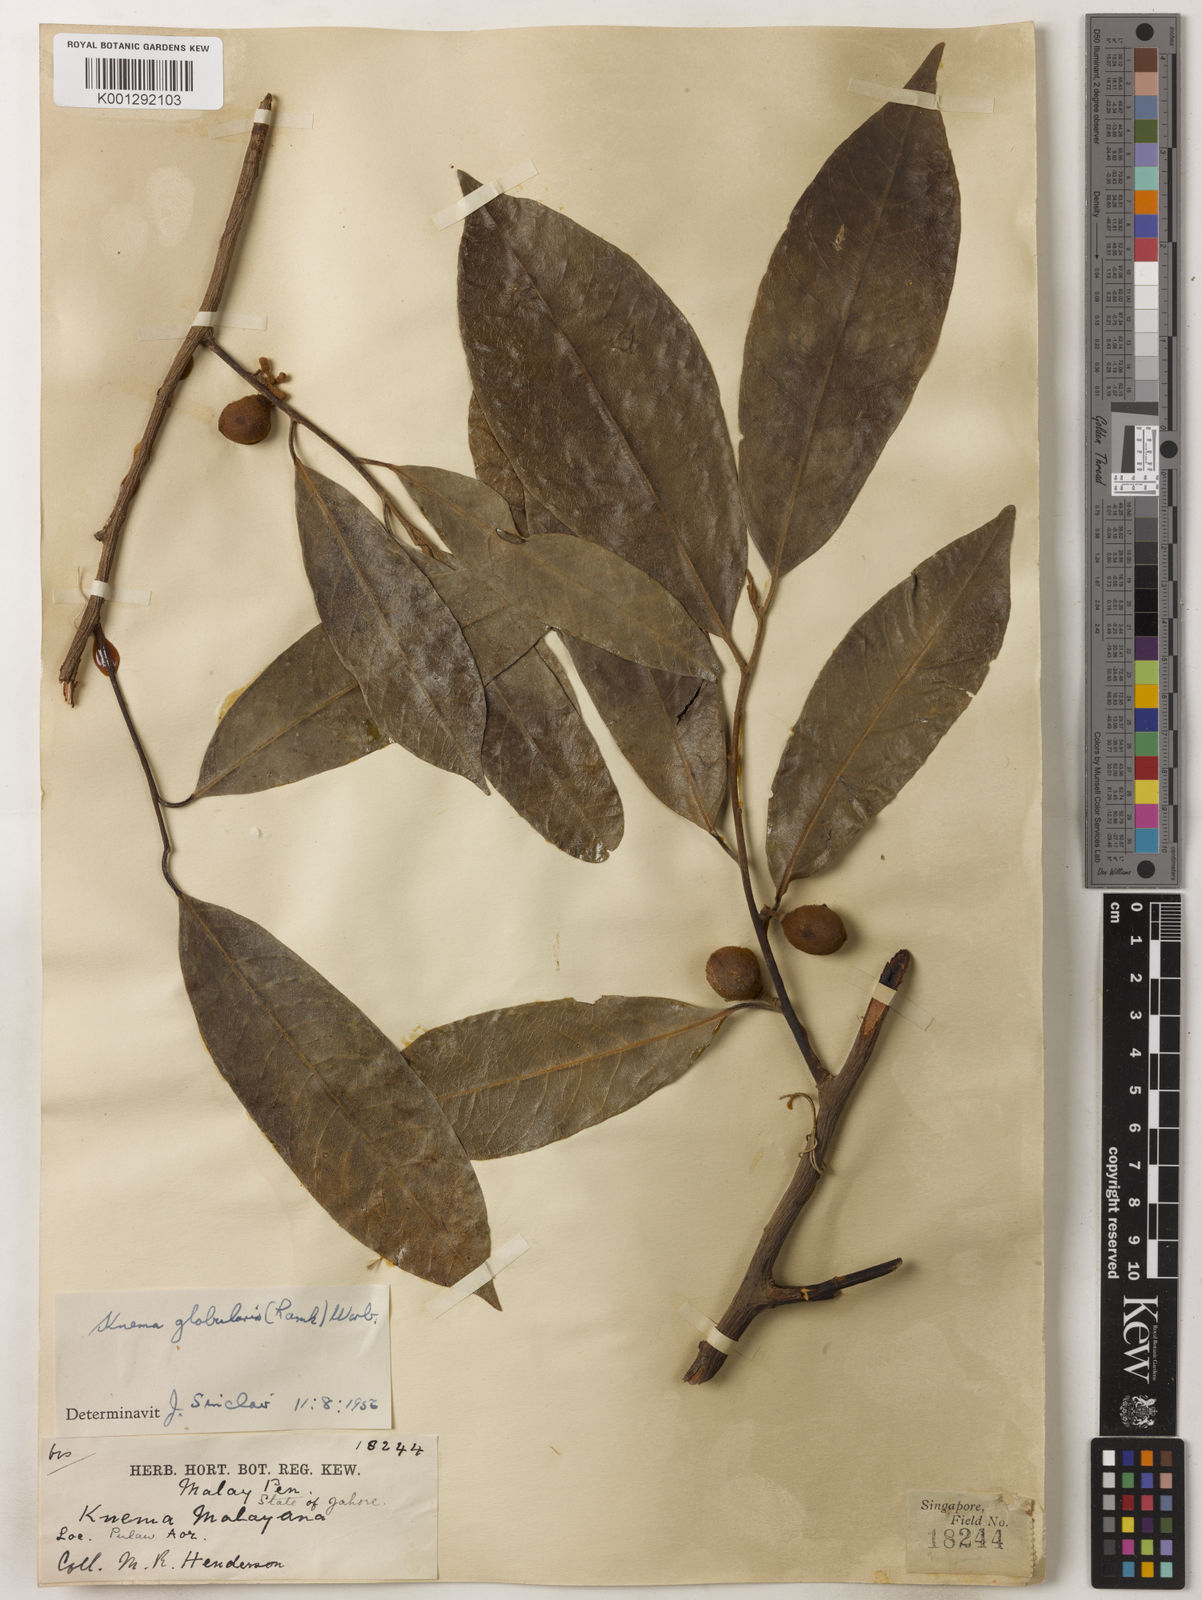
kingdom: Plantae
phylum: Tracheophyta
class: Magnoliopsida
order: Magnoliales
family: Myristicaceae
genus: Knema
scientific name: Knema globularia
